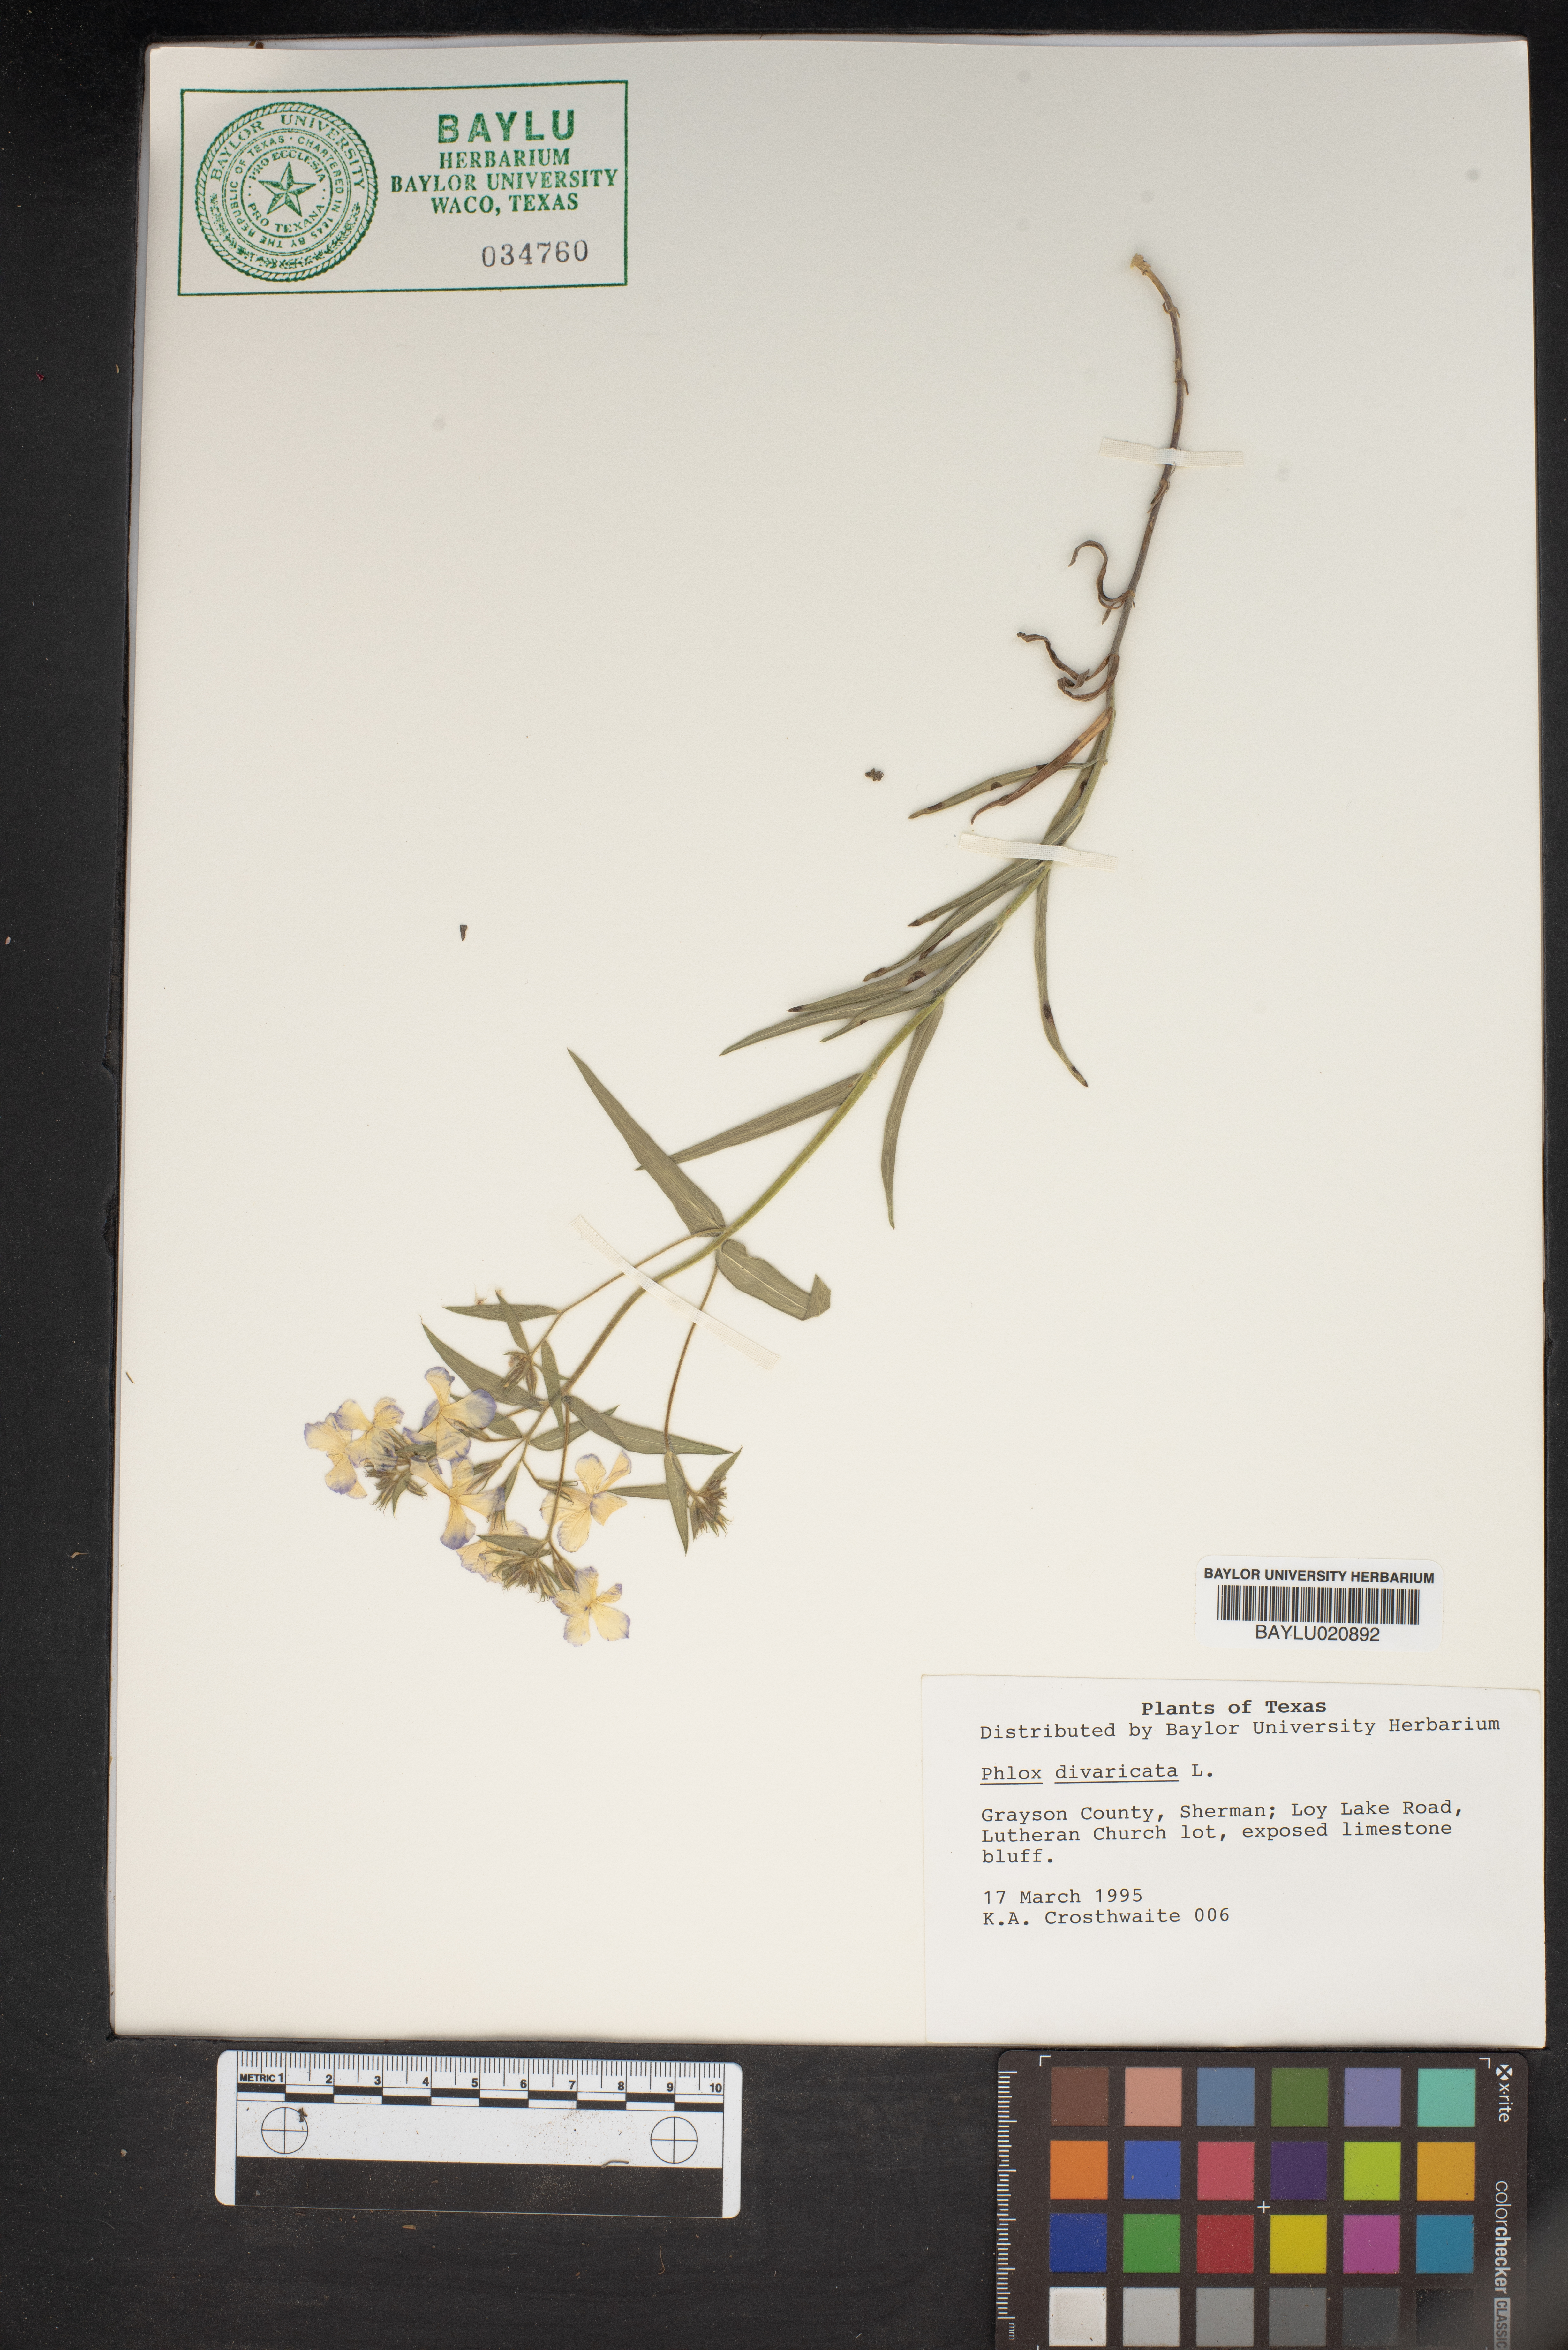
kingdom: Plantae
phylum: Tracheophyta
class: Magnoliopsida
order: Ericales
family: Polemoniaceae
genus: Phlox
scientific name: Phlox divaricata
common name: Blue phlox
